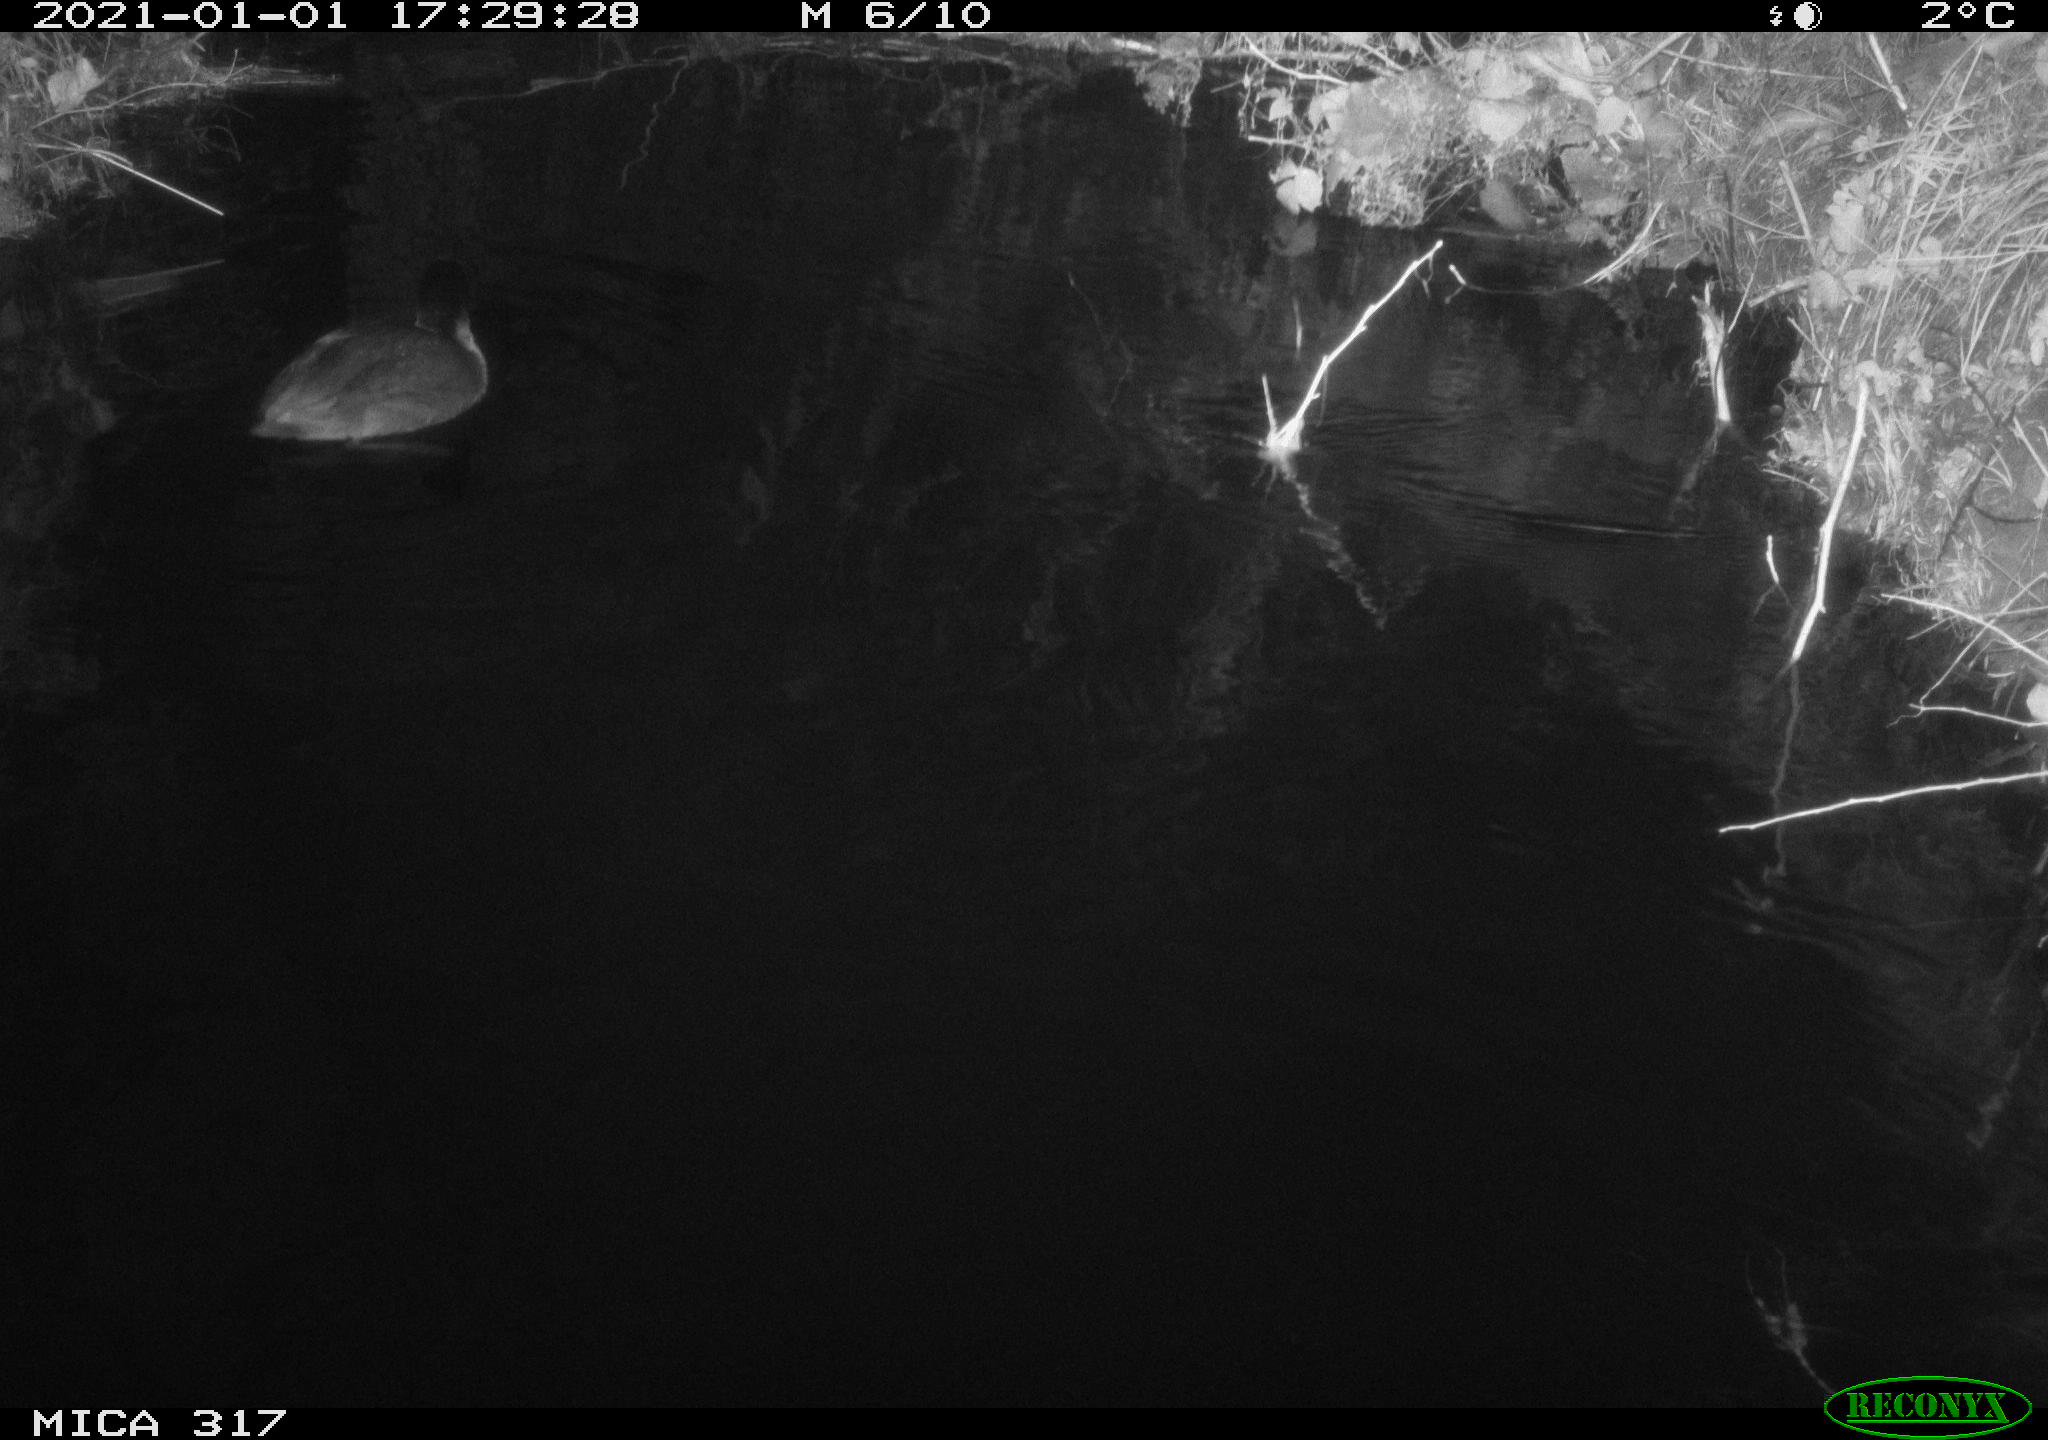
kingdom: Animalia
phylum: Chordata
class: Aves
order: Gruiformes
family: Rallidae
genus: Fulica
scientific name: Fulica atra
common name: Eurasian coot
